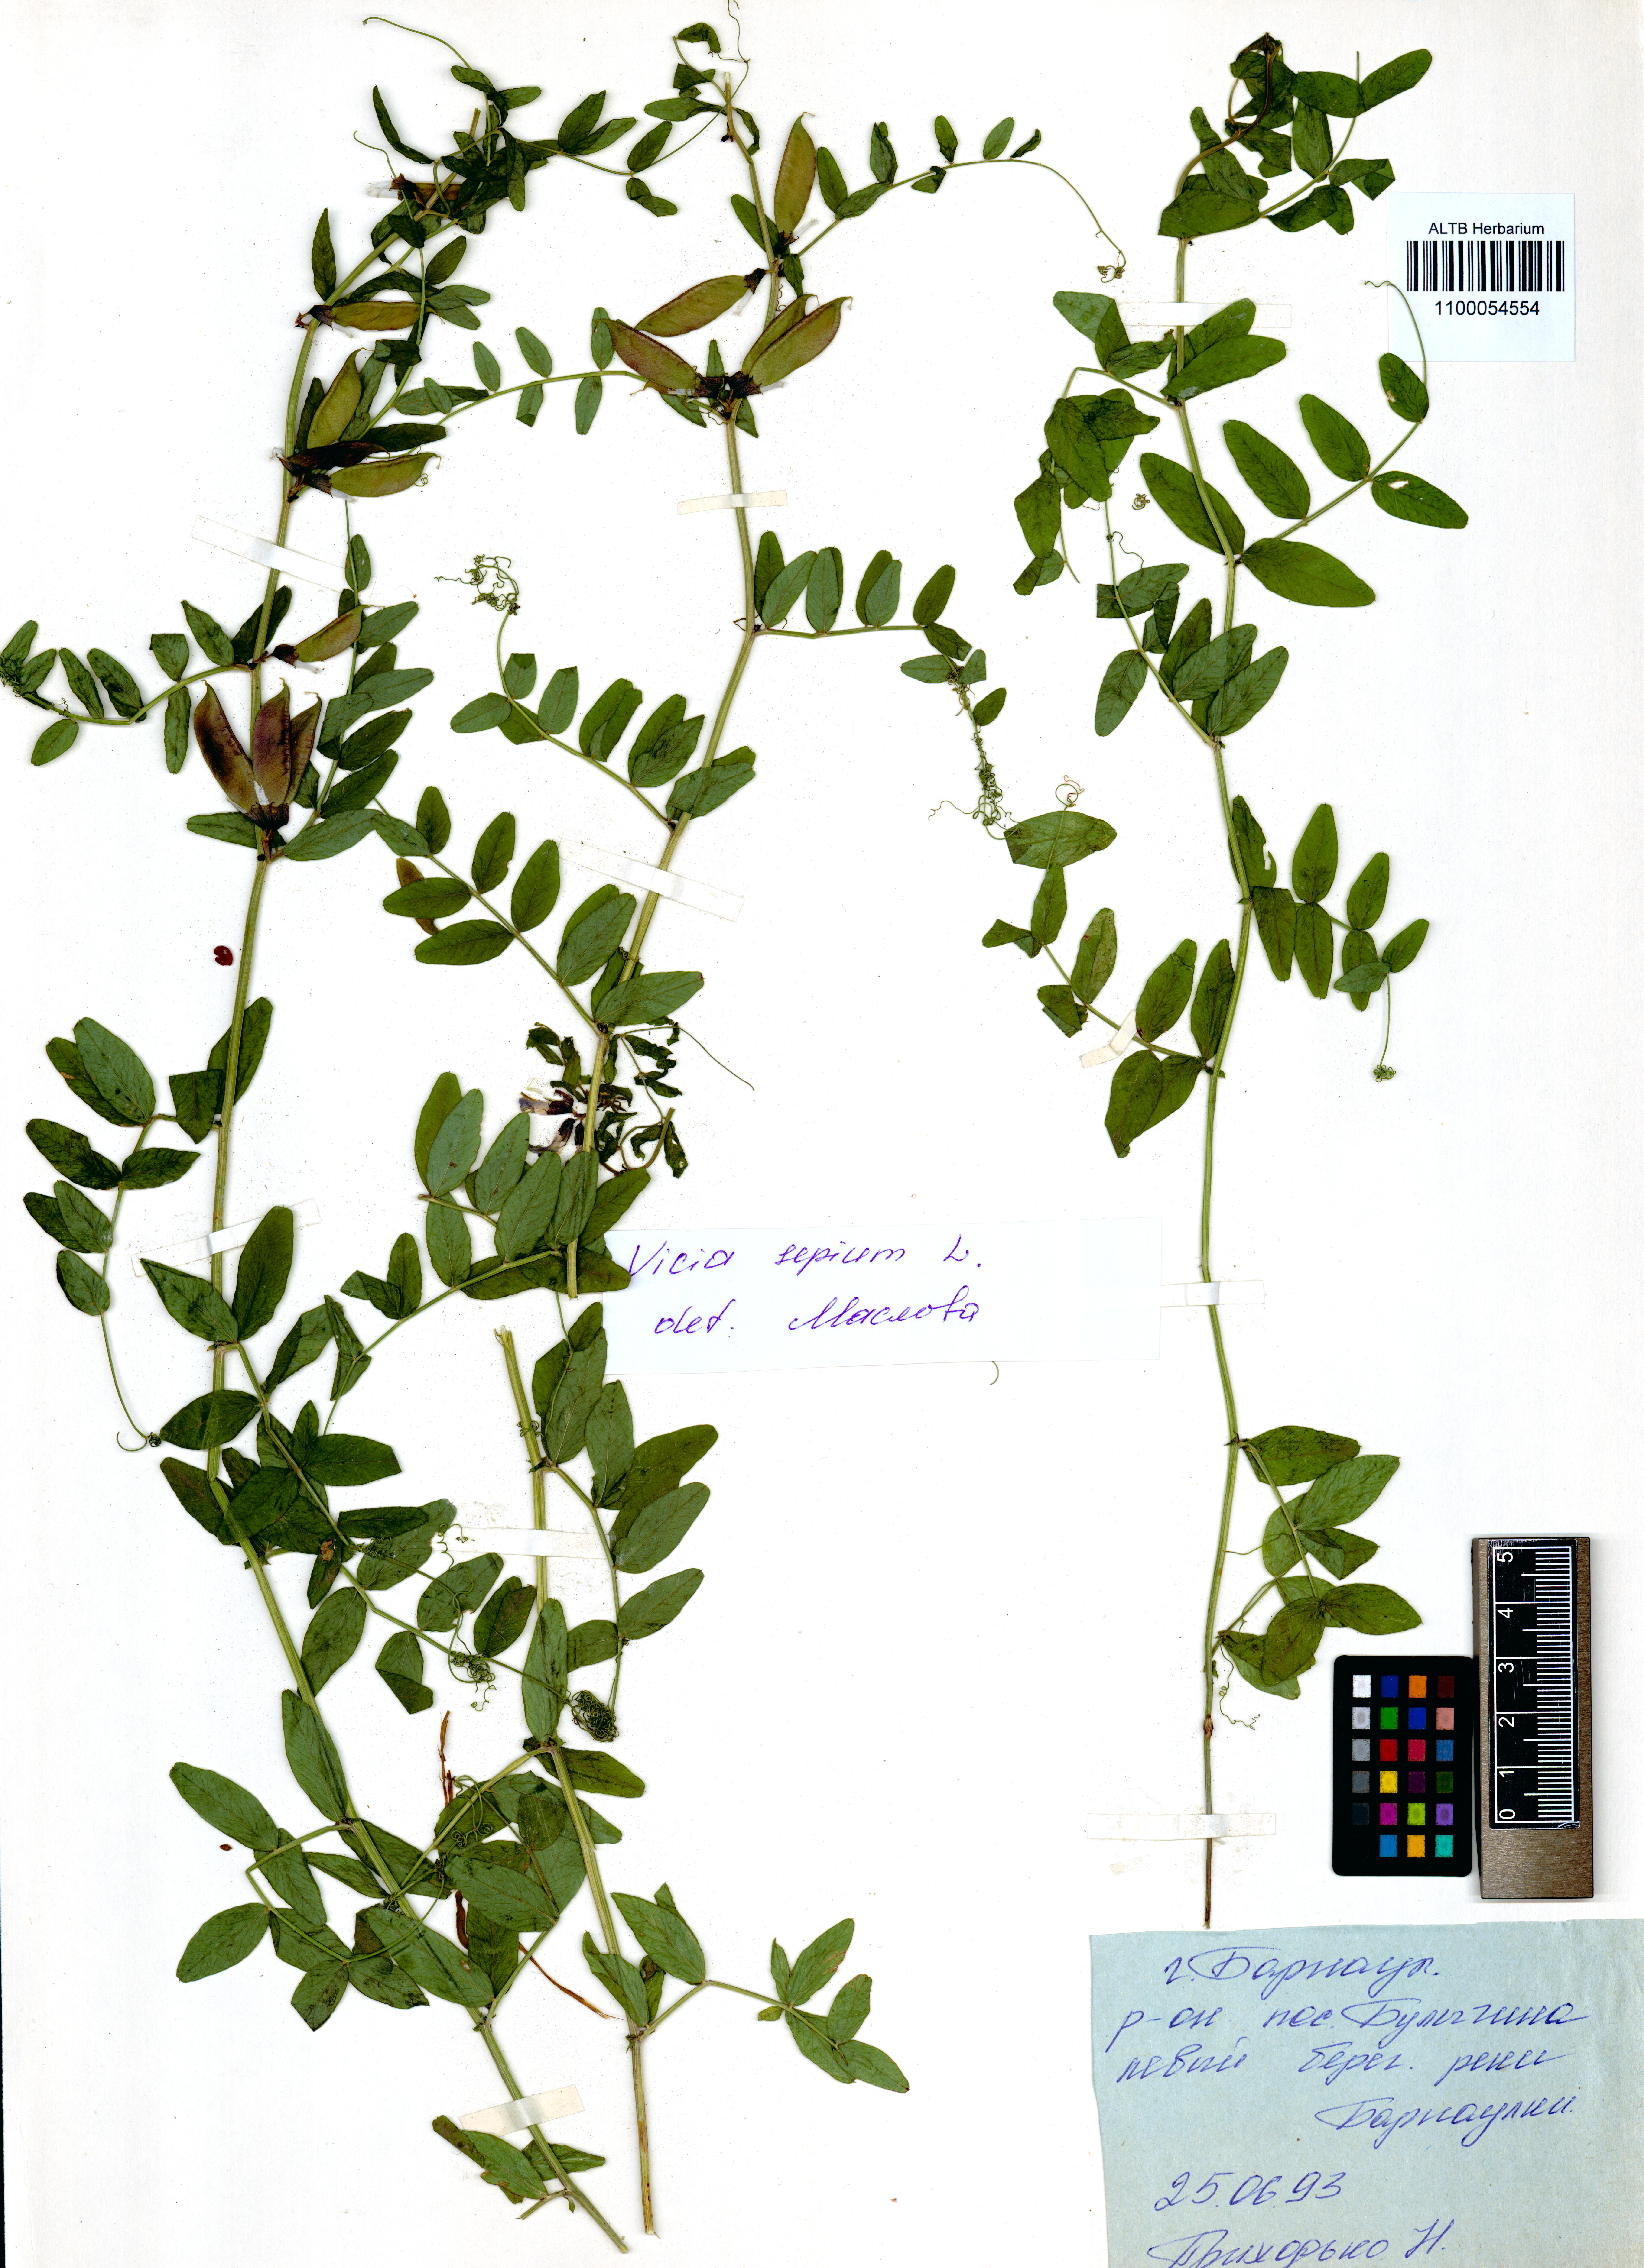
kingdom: Plantae
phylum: Tracheophyta
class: Magnoliopsida
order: Fabales
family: Fabaceae
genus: Vicia
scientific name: Vicia sepium
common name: Bush vetch
